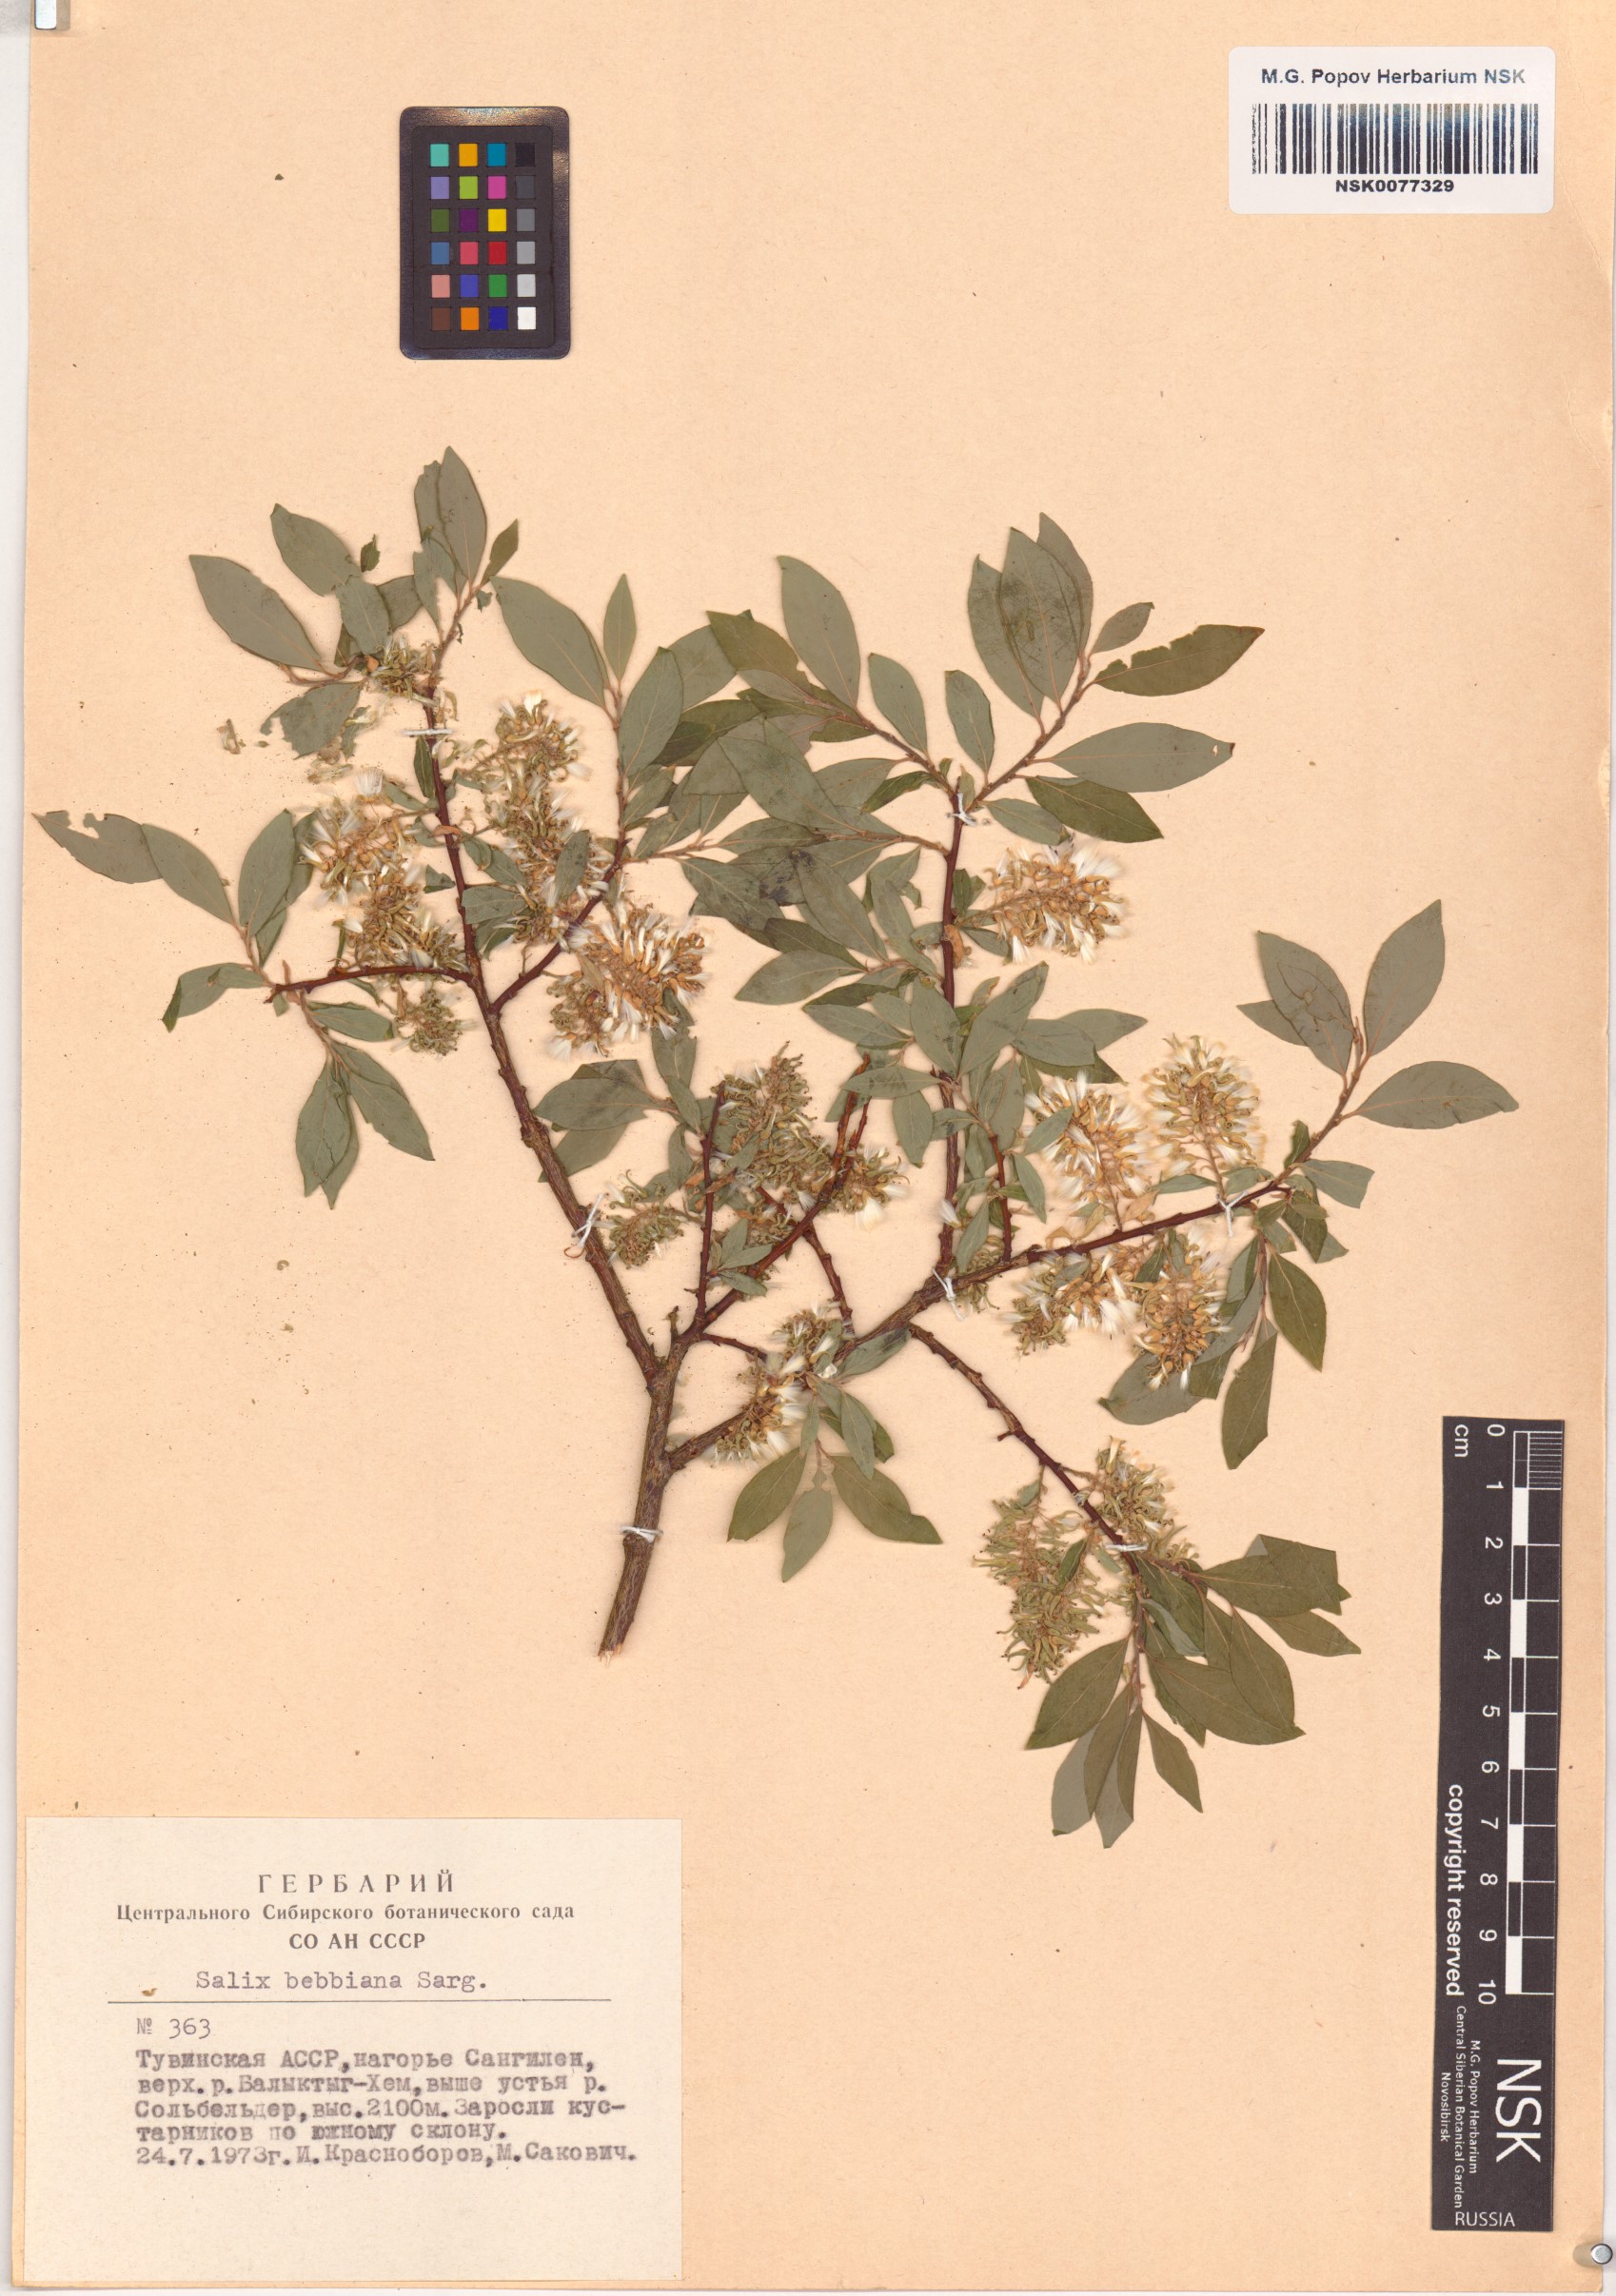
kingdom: Plantae
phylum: Tracheophyta
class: Magnoliopsida
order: Malpighiales
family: Salicaceae
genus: Salix
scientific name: Salix bebbiana
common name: Bebb's willow
